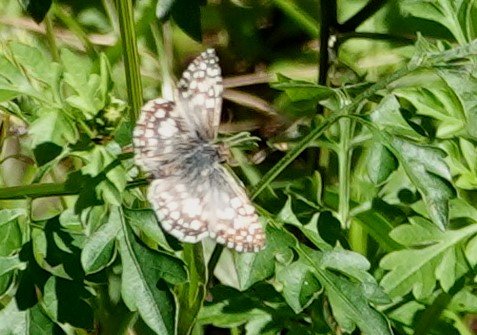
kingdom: Animalia
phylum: Arthropoda
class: Insecta
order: Lepidoptera
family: Hesperiidae
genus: Pyrgus
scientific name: Pyrgus oileus
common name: Tropical Checkered-Skipper
